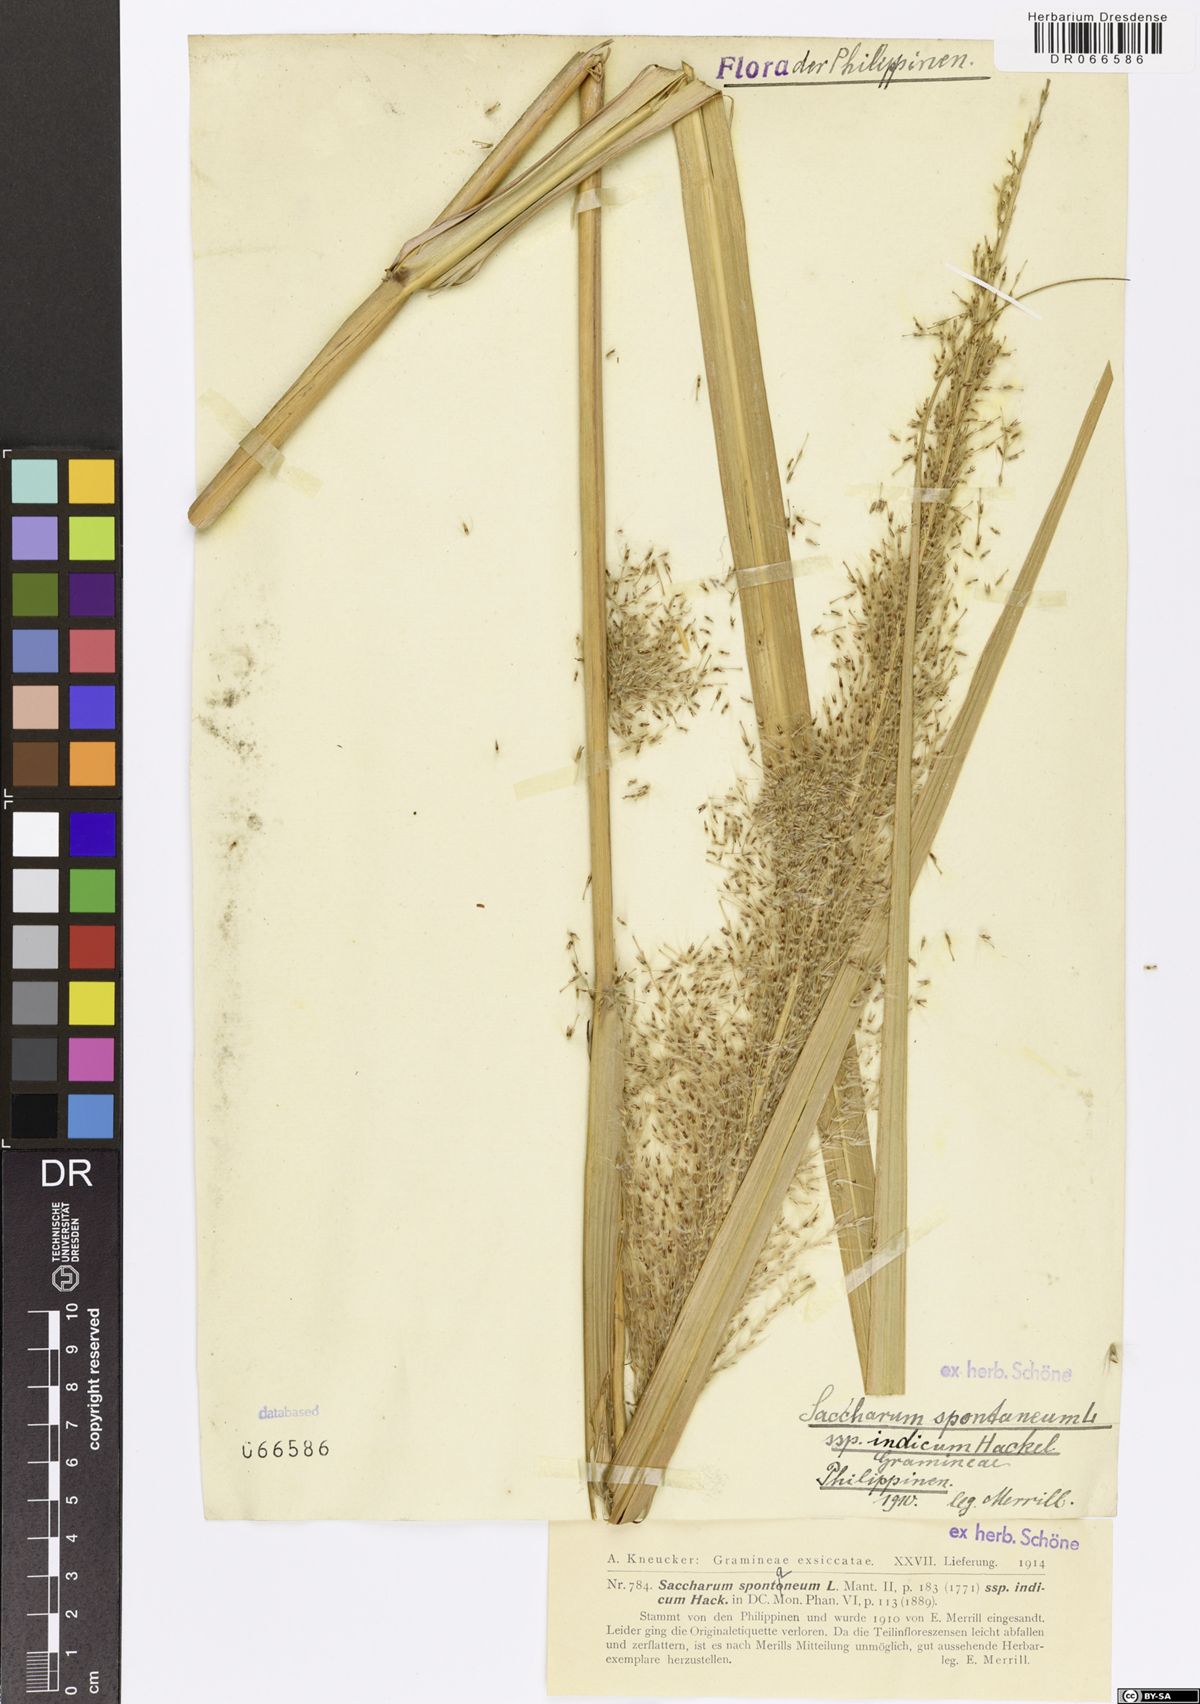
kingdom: Plantae
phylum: Tracheophyta
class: Liliopsida
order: Poales
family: Poaceae
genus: Saccharum
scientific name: Saccharum spontaneum
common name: Wild sugarcane
